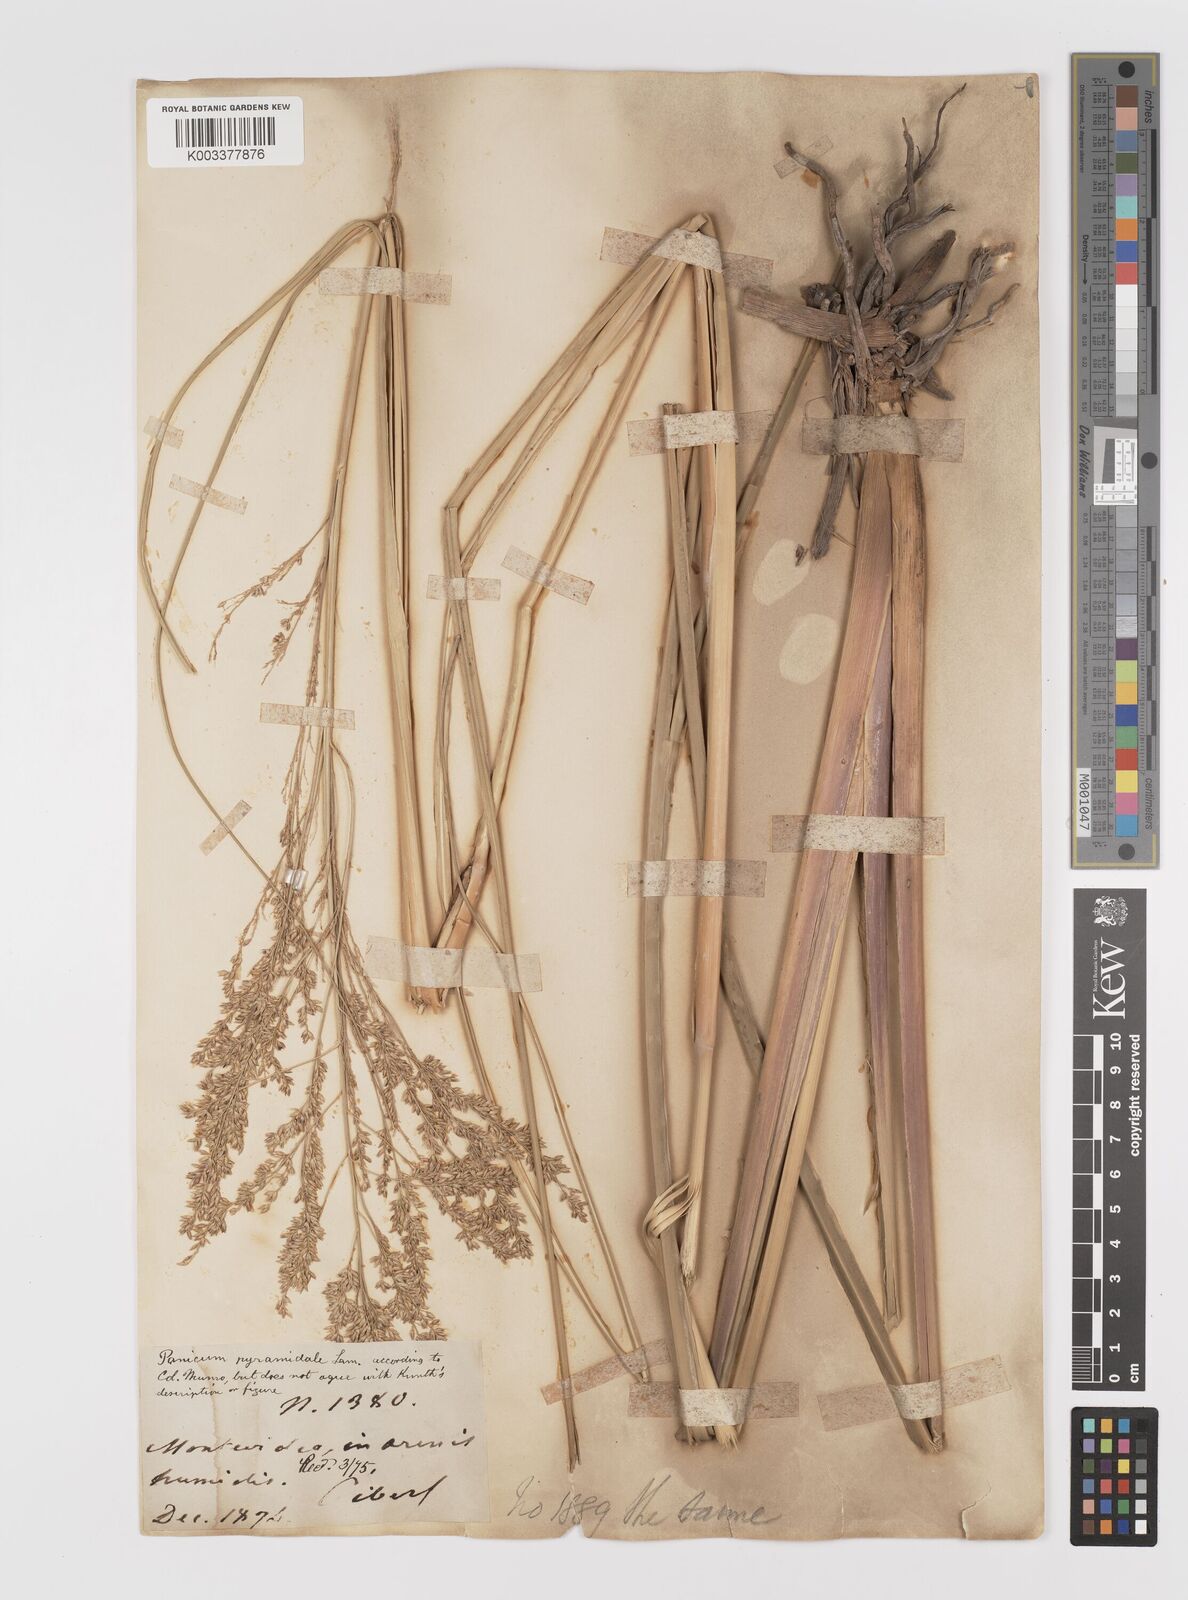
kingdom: Plantae
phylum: Tracheophyta
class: Liliopsida
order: Poales
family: Poaceae
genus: Coleataenia
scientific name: Coleataenia prionitis
